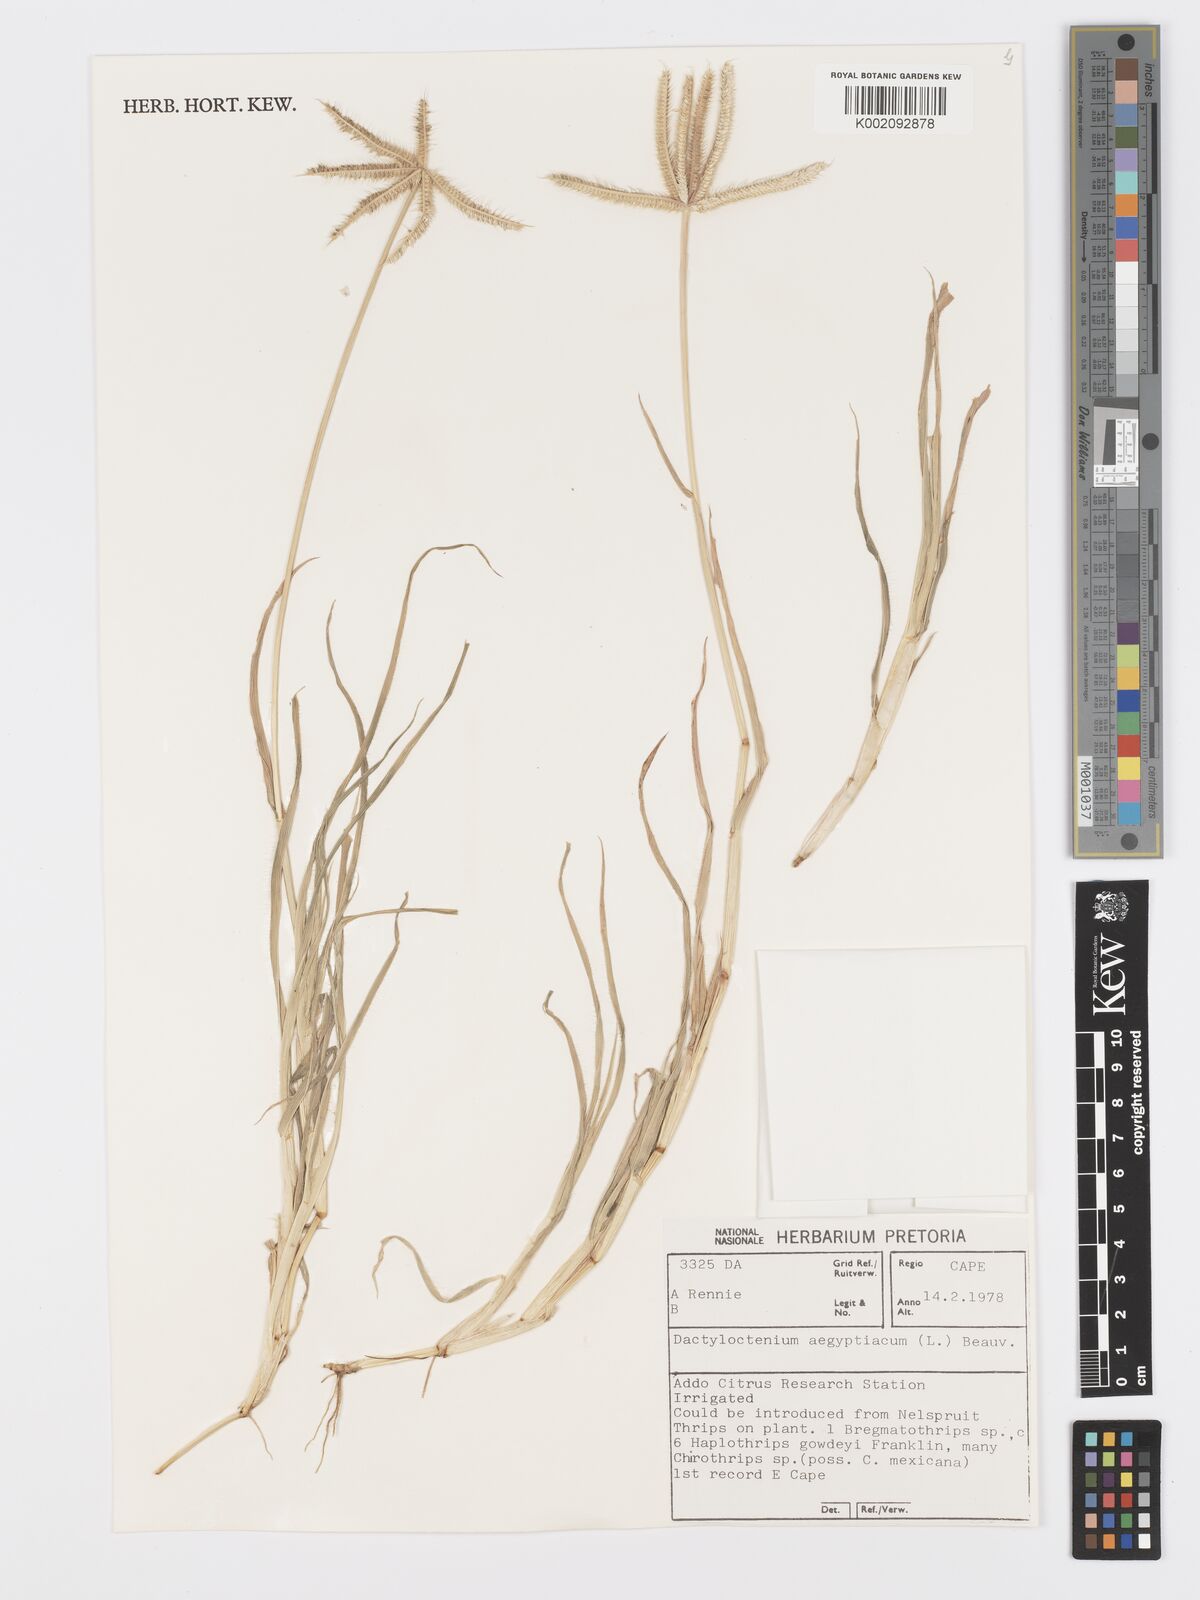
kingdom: Plantae
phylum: Tracheophyta
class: Liliopsida
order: Poales
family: Poaceae
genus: Dactyloctenium
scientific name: Dactyloctenium aegyptium
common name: Egyptian grass
